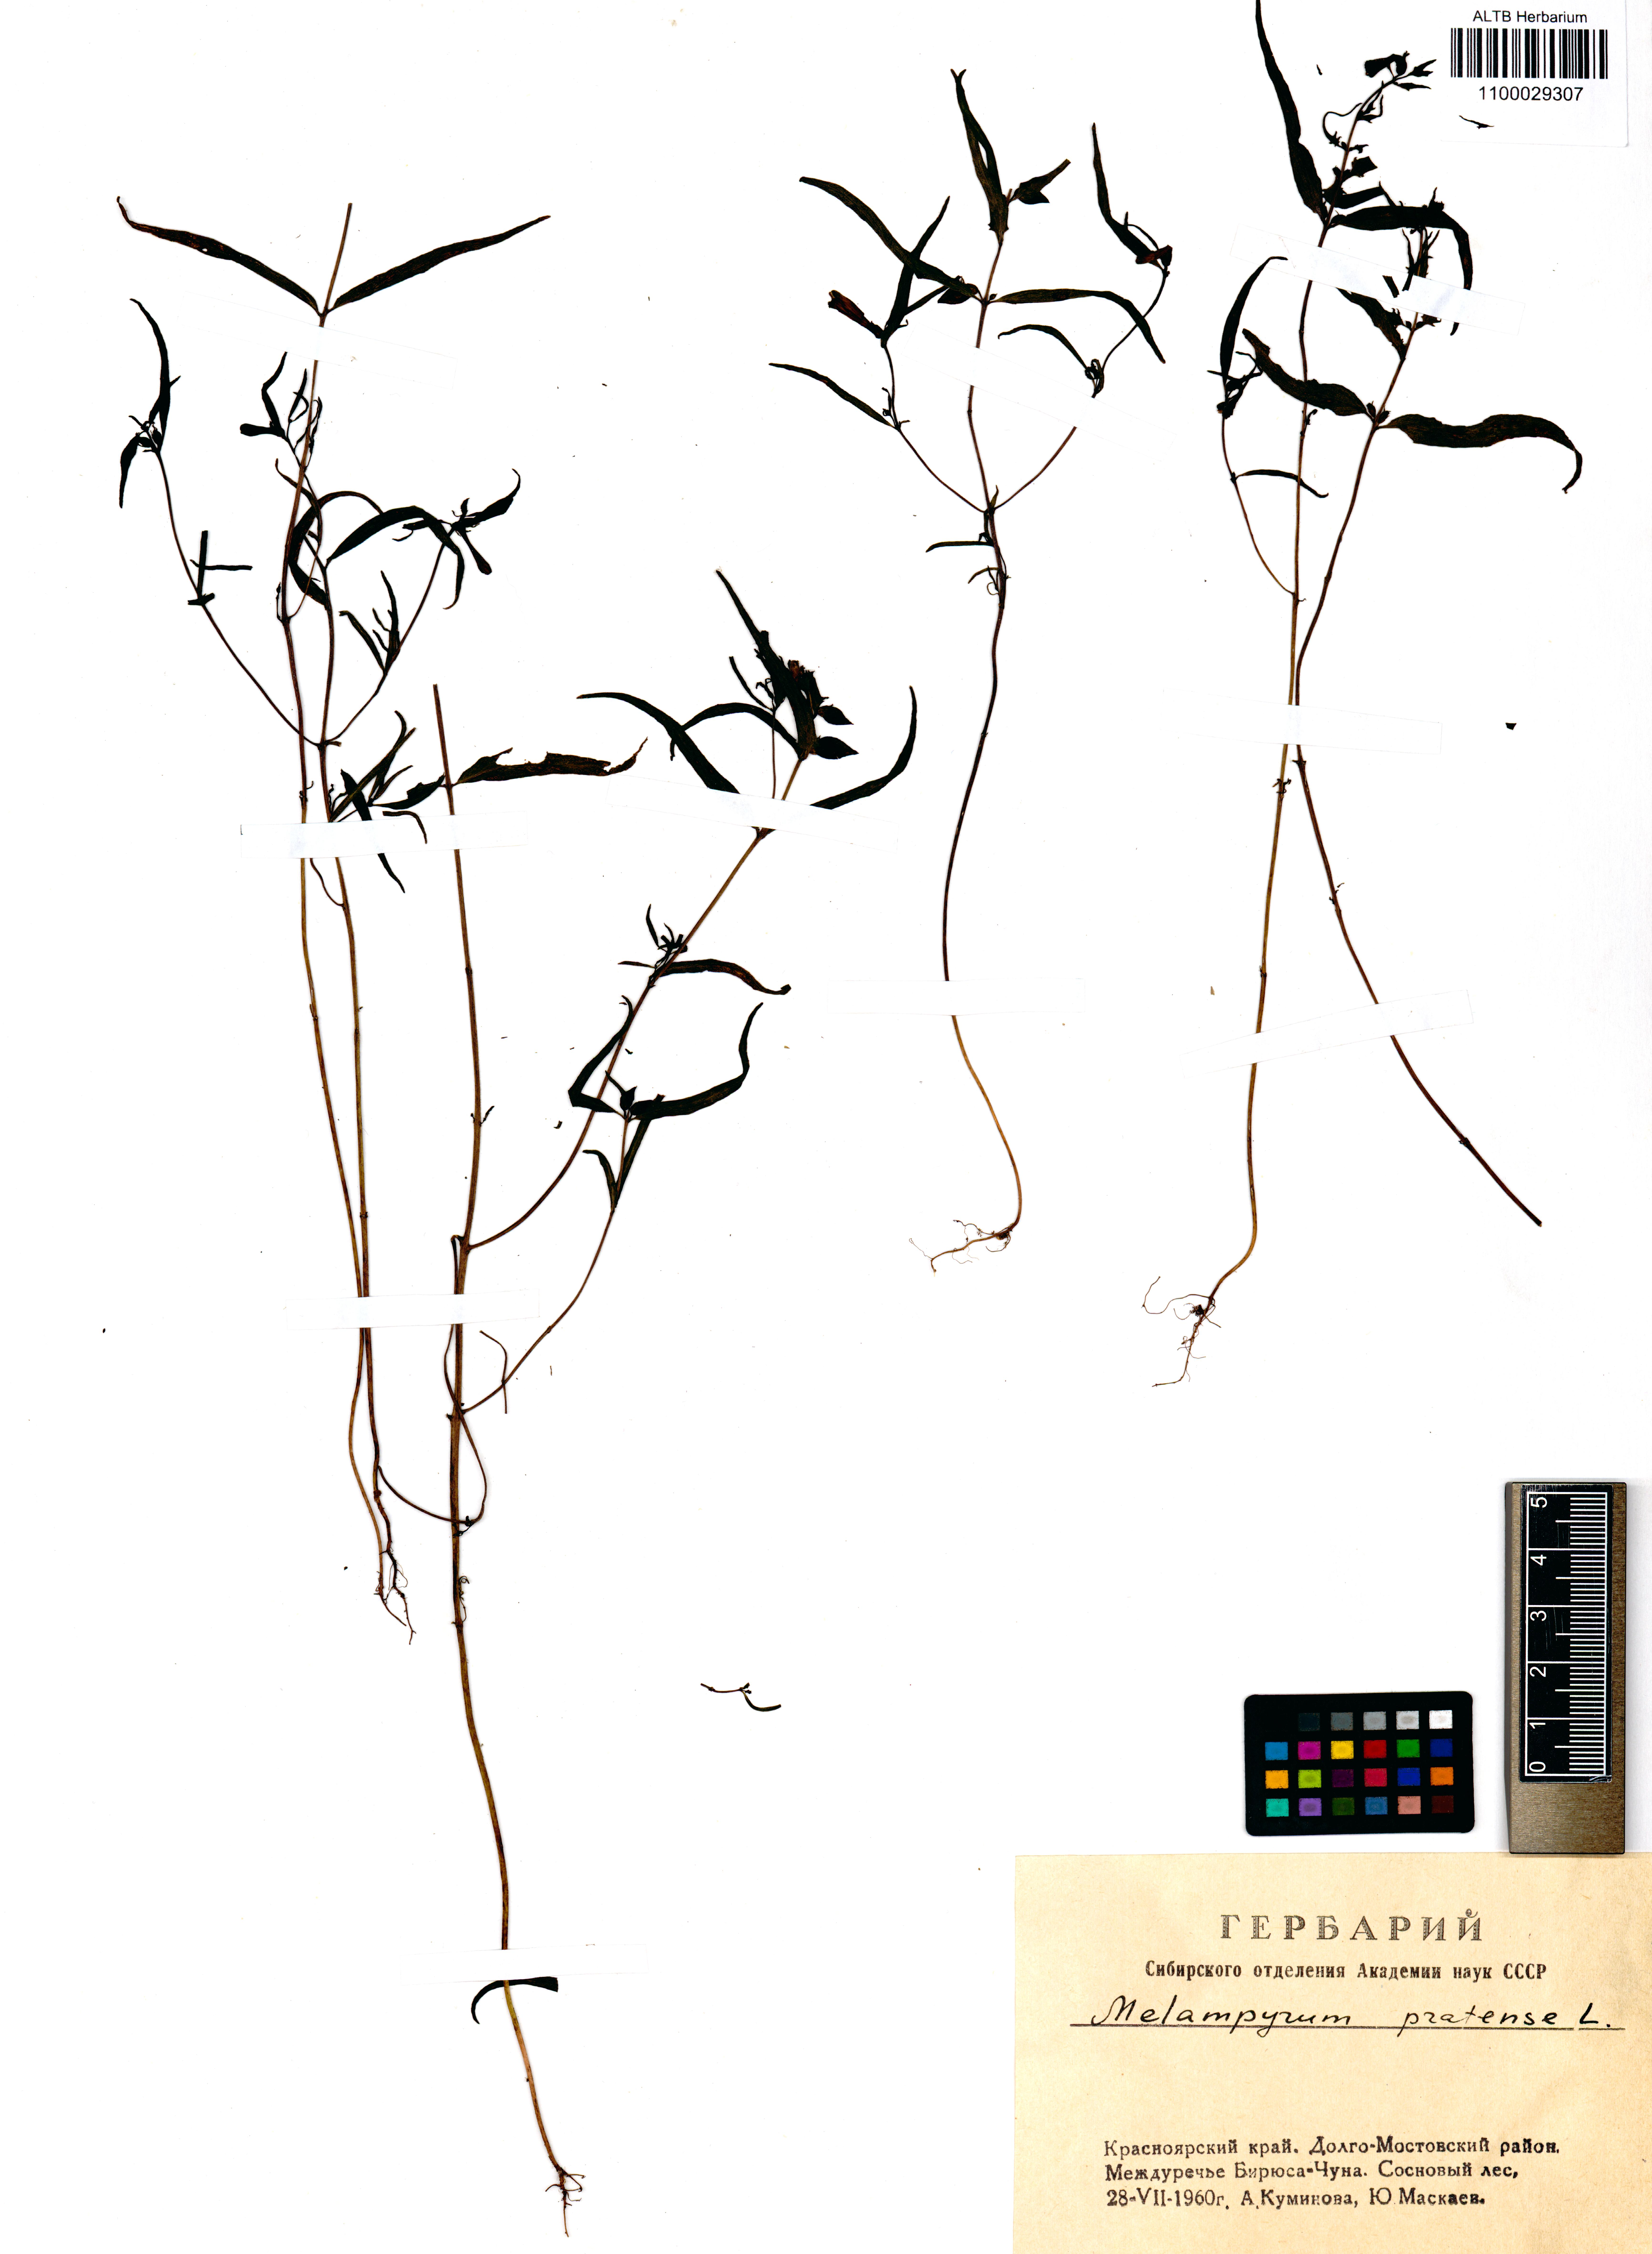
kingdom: Plantae
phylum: Tracheophyta
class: Magnoliopsida
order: Lamiales
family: Orobanchaceae
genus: Melampyrum
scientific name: Melampyrum pratense
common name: Common cow-wheat
